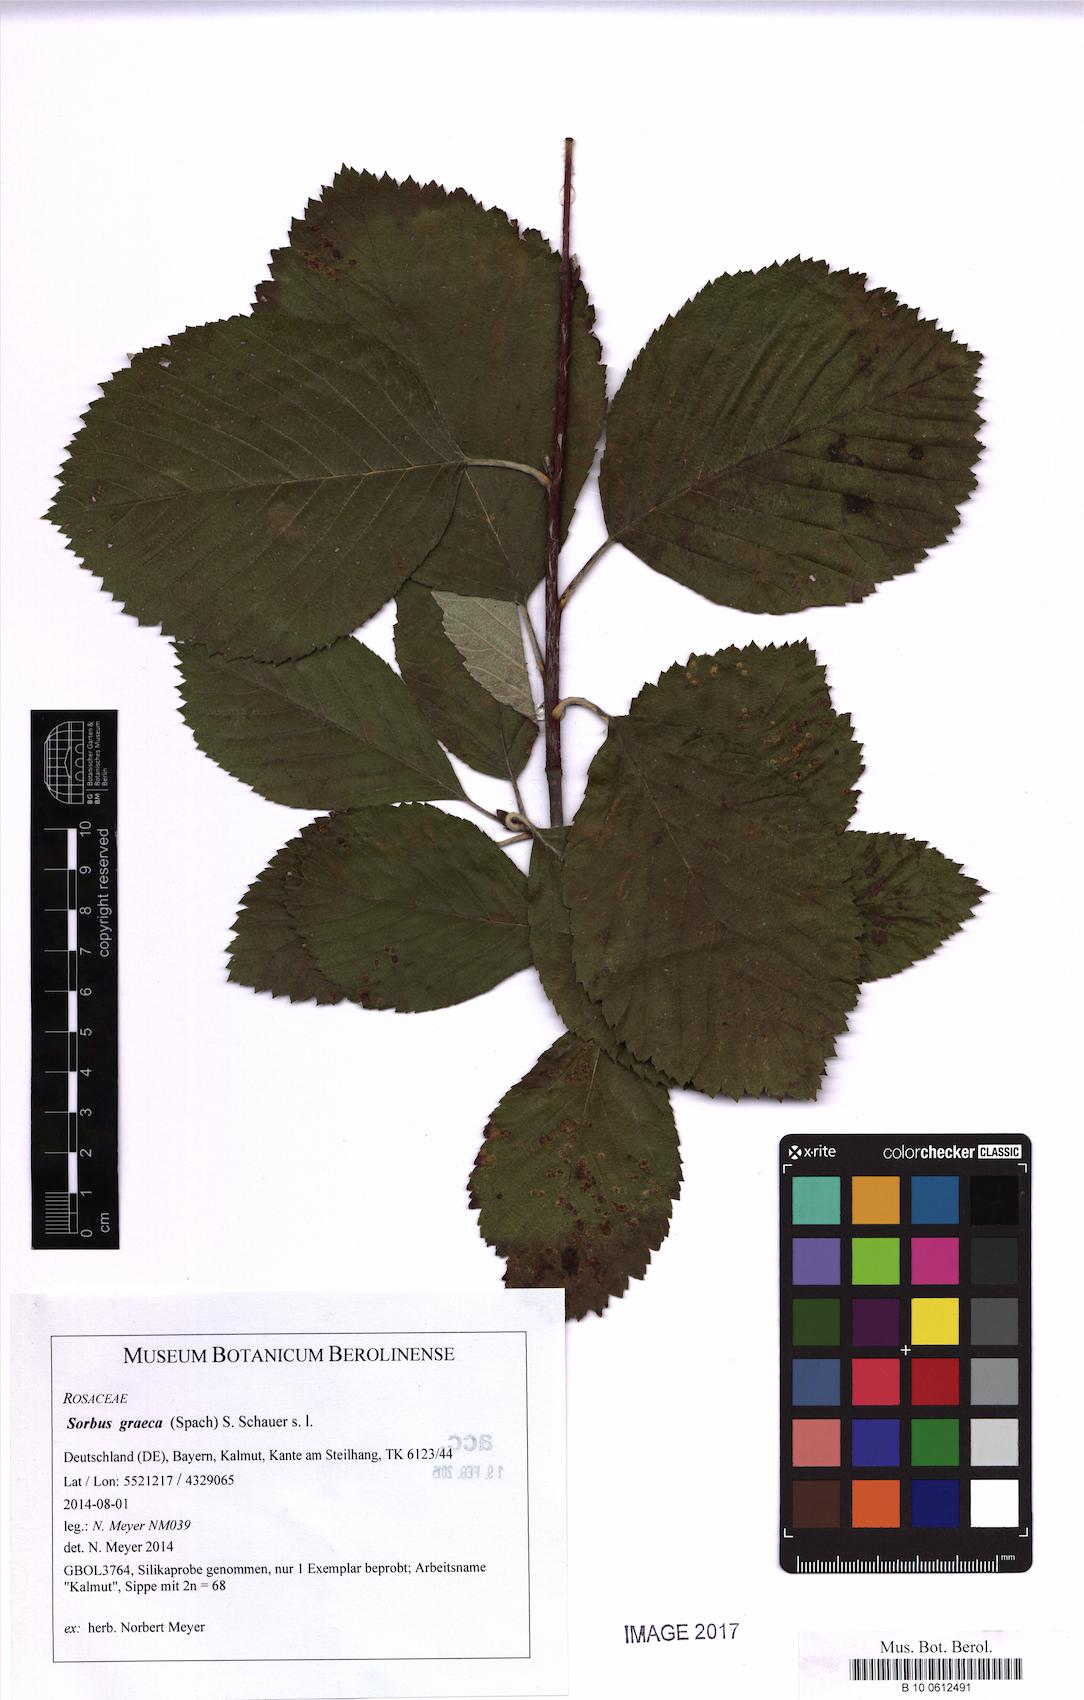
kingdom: Plantae
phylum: Tracheophyta
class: Magnoliopsida
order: Rosales
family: Rosaceae
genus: Aria
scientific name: Aria graeca
